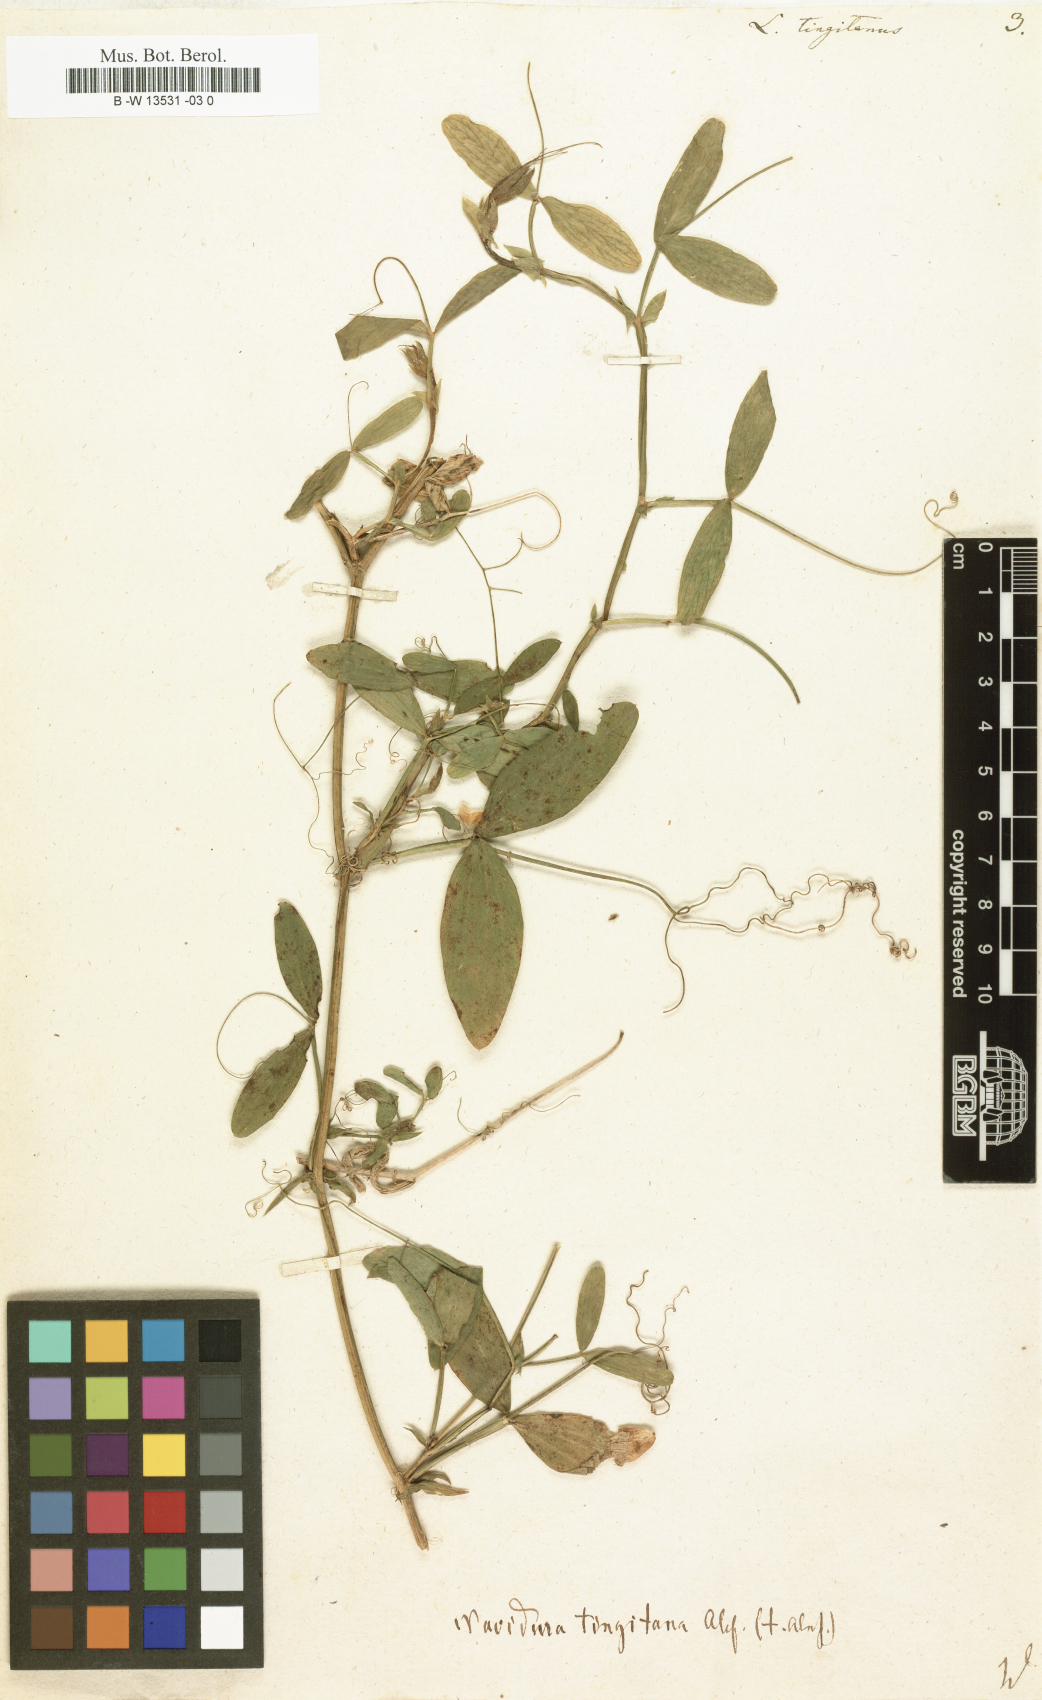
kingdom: Plantae
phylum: Tracheophyta
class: Magnoliopsida
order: Fabales
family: Fabaceae
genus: Lathyrus
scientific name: Lathyrus tingitanus
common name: Tangier pea
